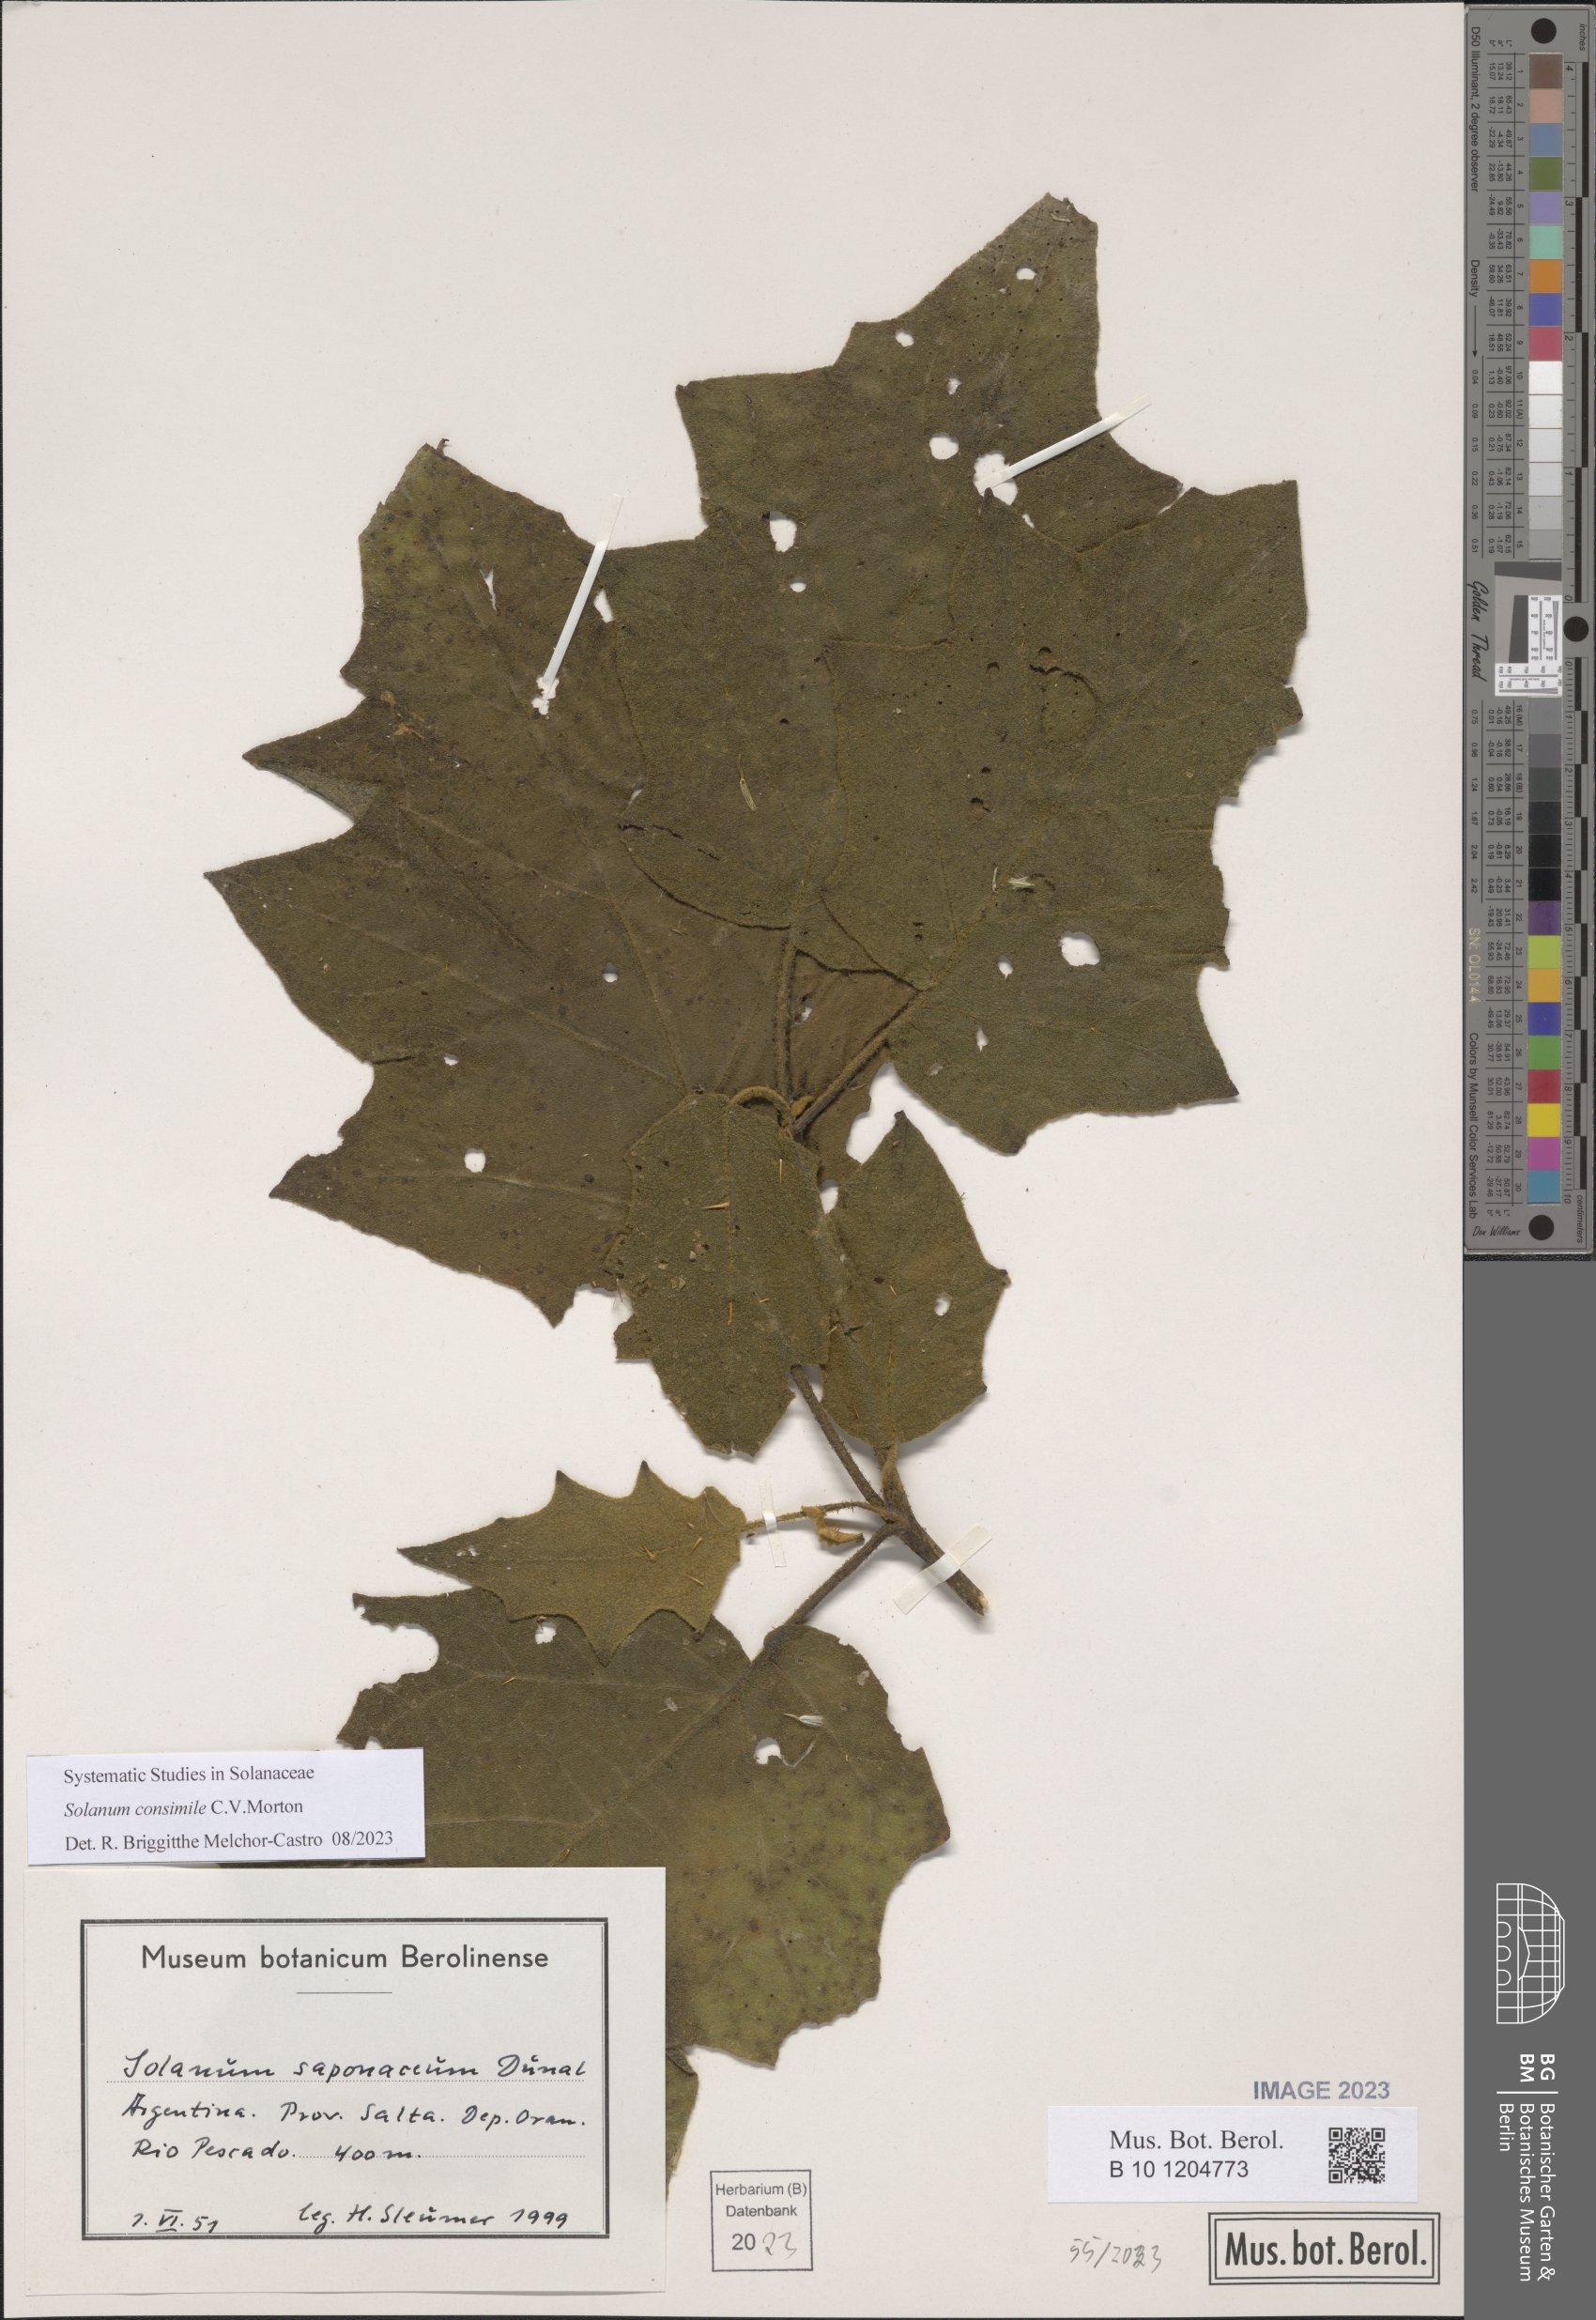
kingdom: Plantae
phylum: Tracheophyta
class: Magnoliopsida
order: Solanales
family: Solanaceae
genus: Solanum
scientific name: Solanum consimile
